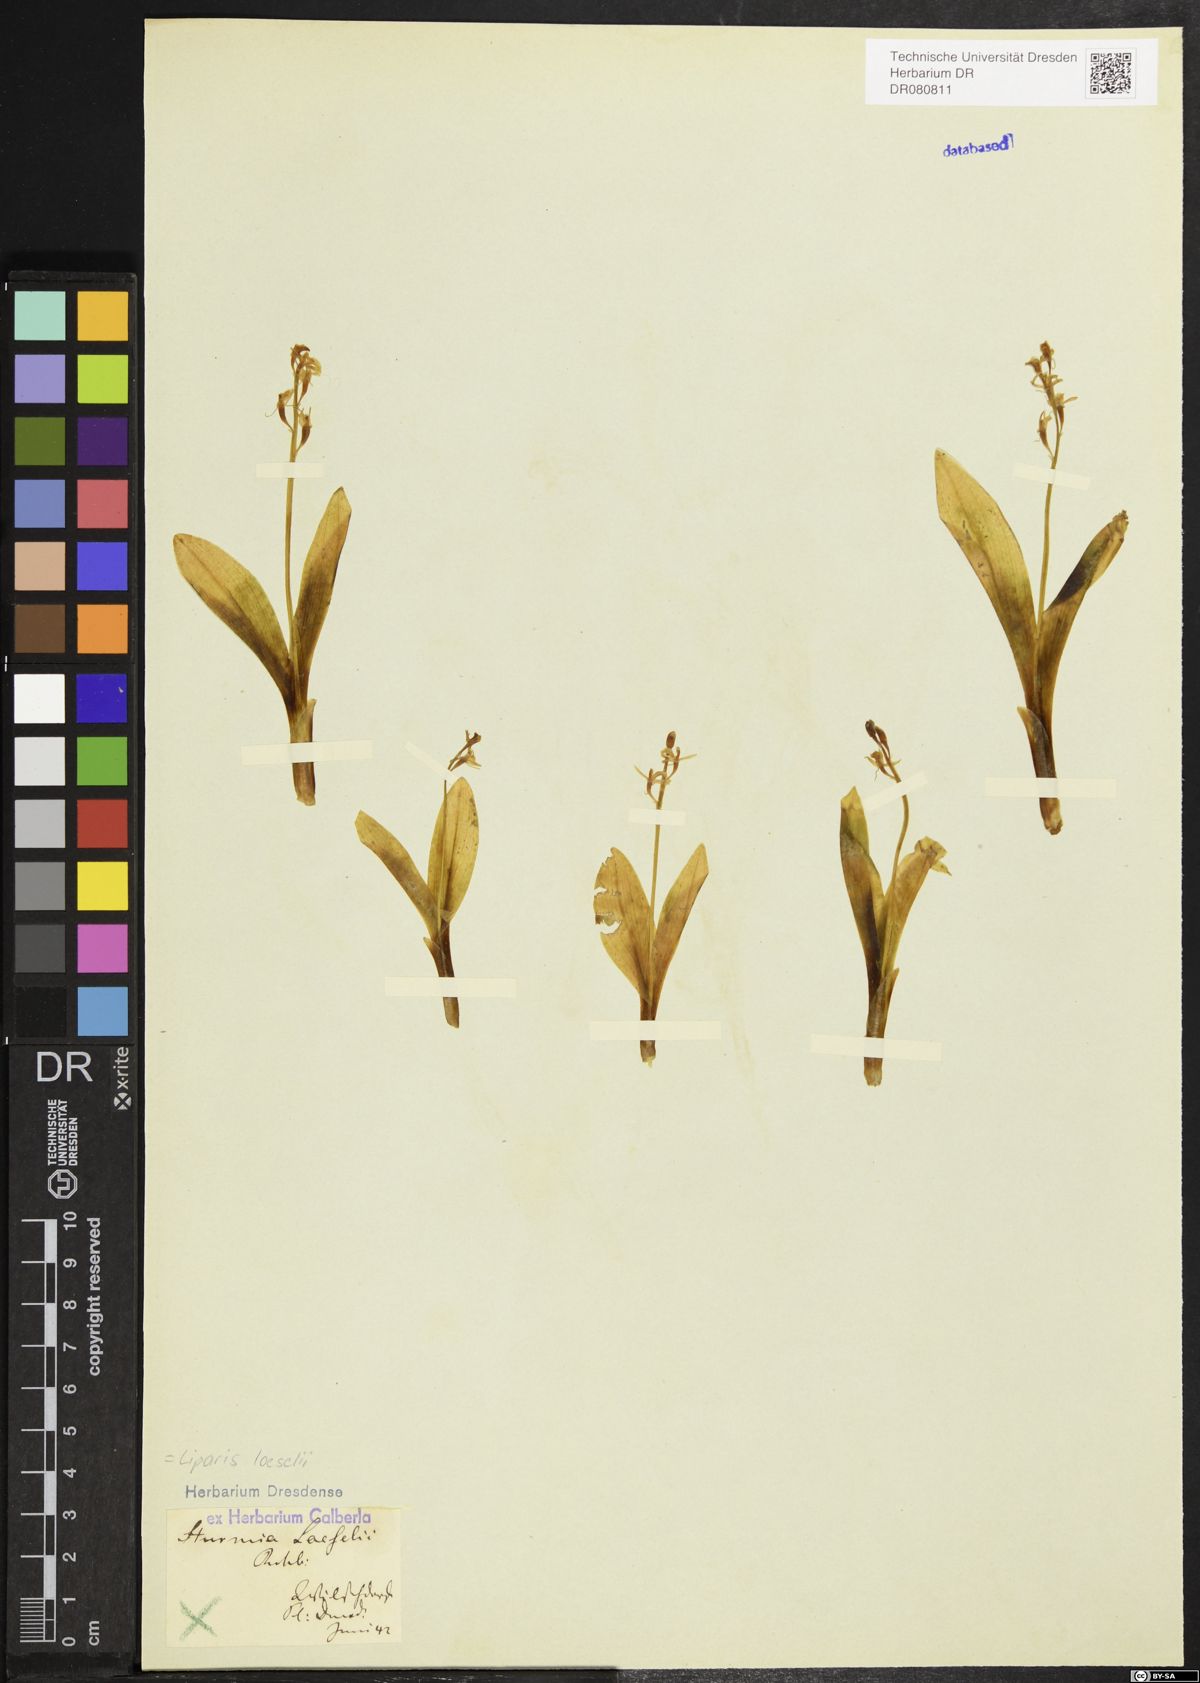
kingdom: Animalia
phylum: Arthropoda
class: Insecta
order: Coleoptera
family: Curculionidae
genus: Liparis
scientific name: Liparis loeselii
